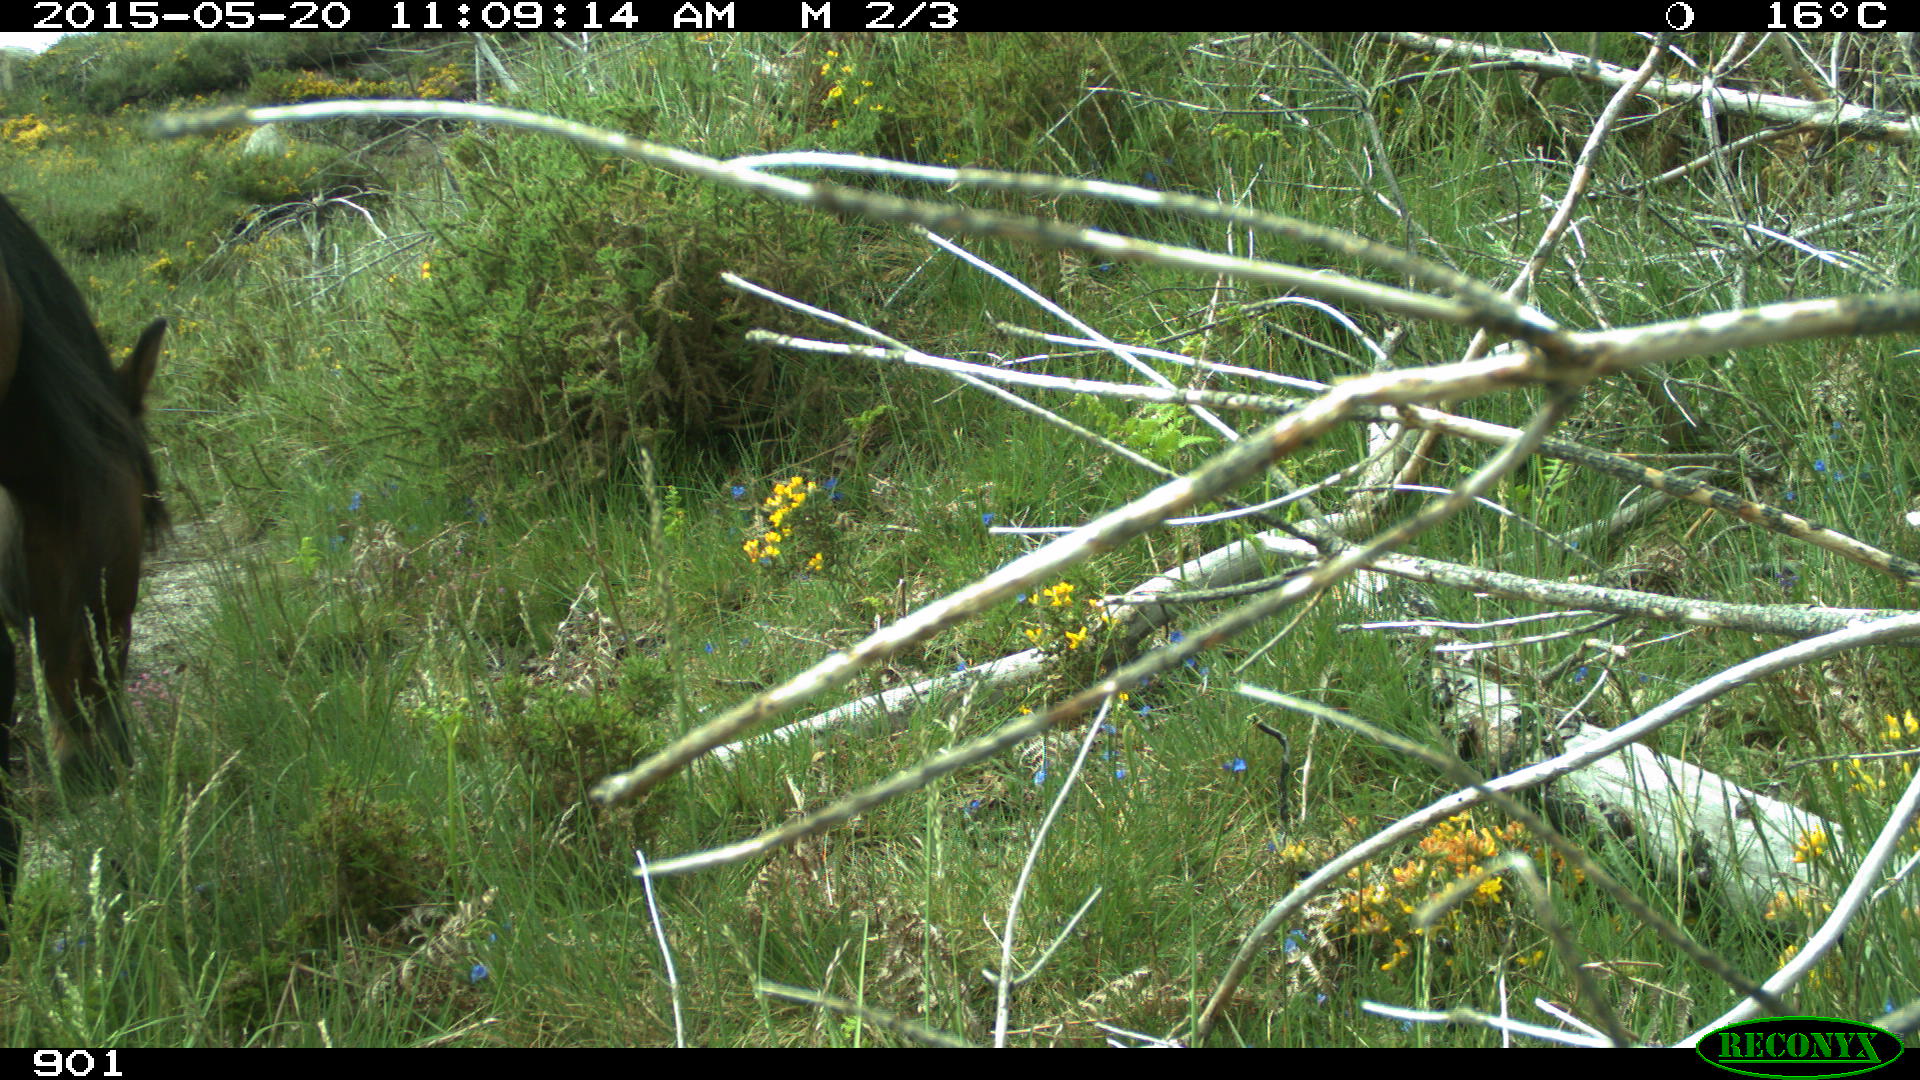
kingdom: Animalia
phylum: Chordata
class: Mammalia
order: Perissodactyla
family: Equidae
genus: Equus
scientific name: Equus caballus
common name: Horse
